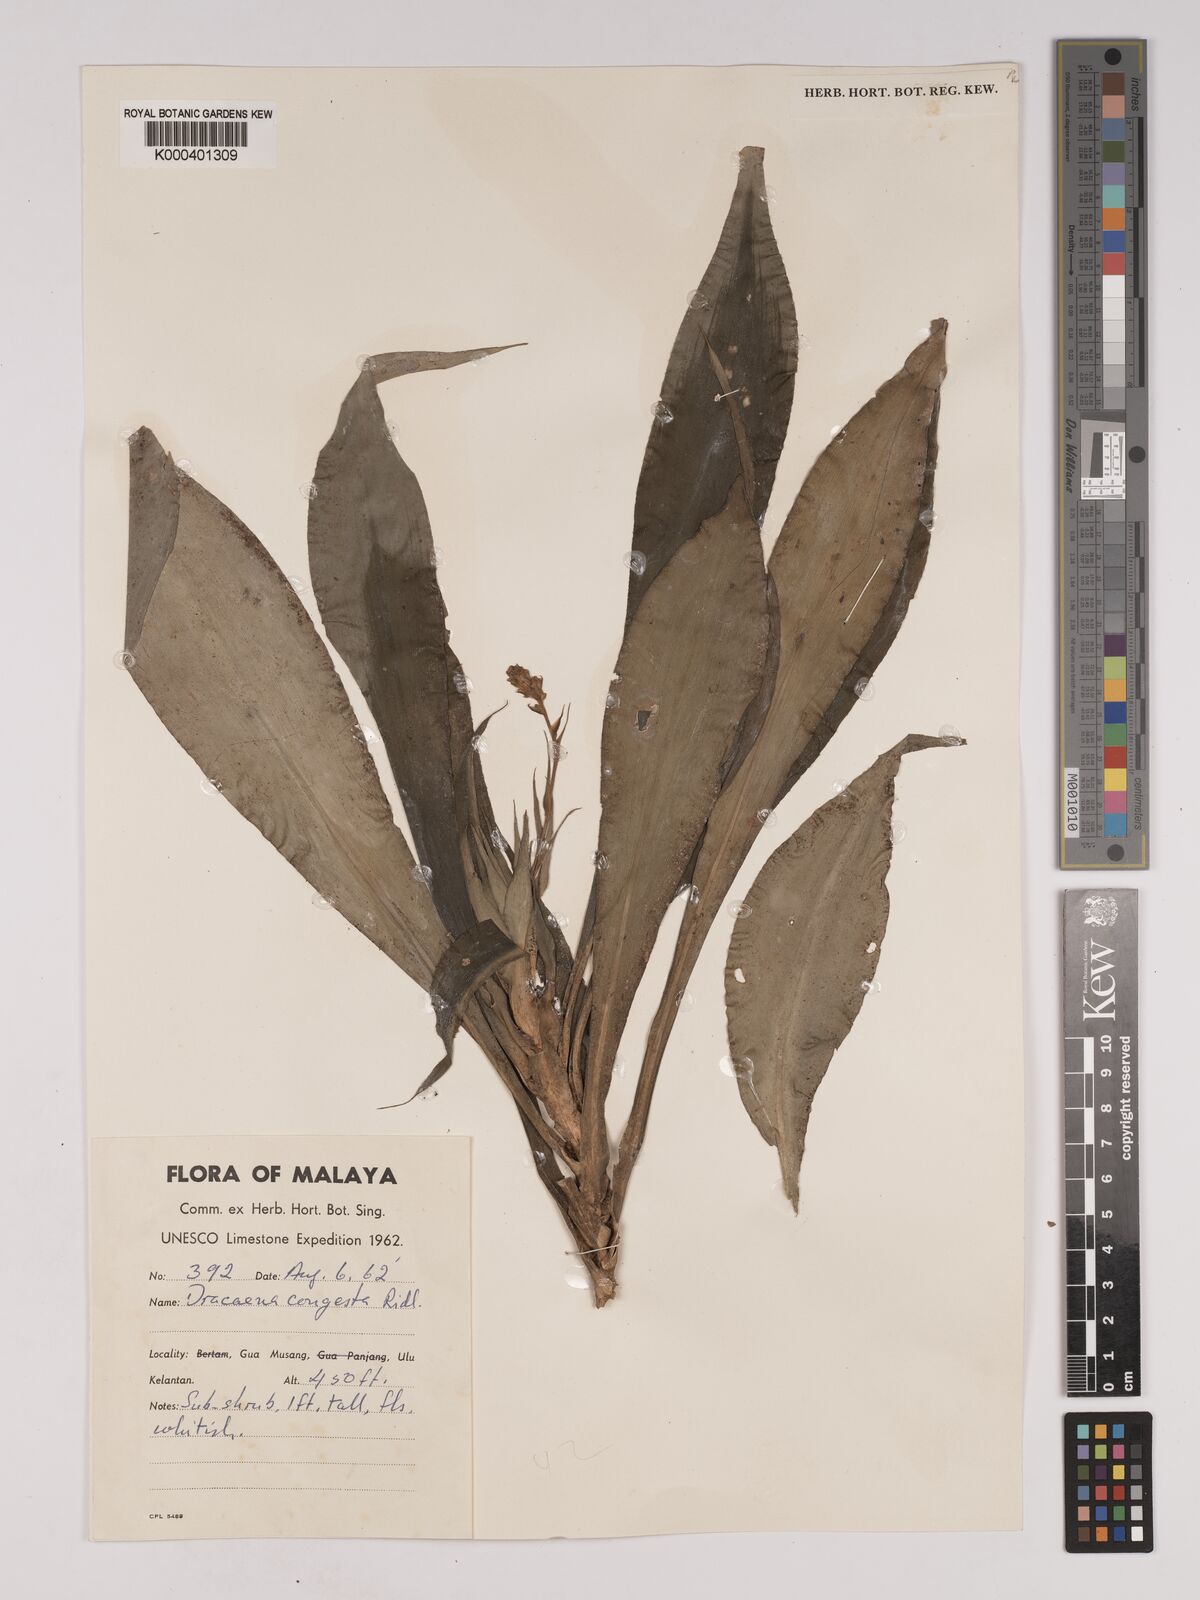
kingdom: Plantae
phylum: Tracheophyta
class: Liliopsida
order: Asparagales
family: Asparagaceae
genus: Dracaena
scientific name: Dracaena chiniana
